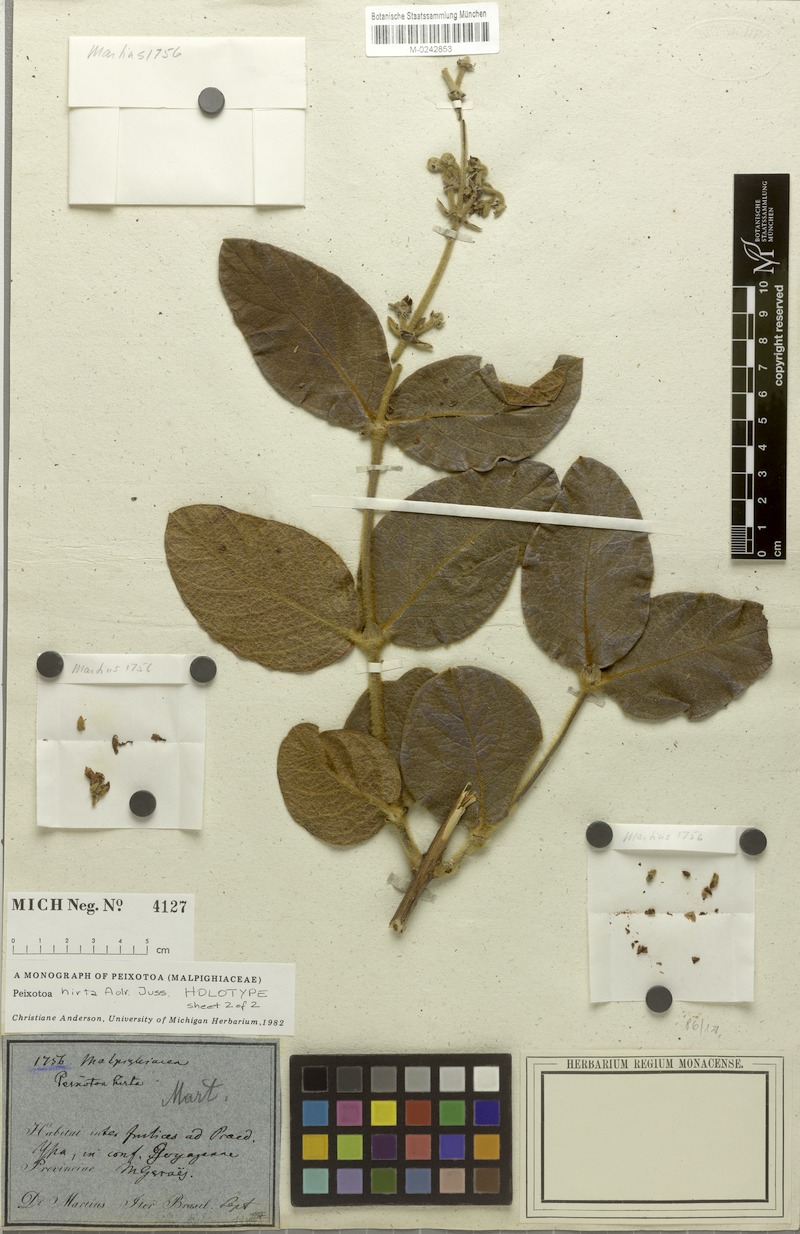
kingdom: Plantae
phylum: Tracheophyta
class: Magnoliopsida
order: Malpighiales
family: Malpighiaceae
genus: Peixotoa
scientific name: Peixotoa hirta
